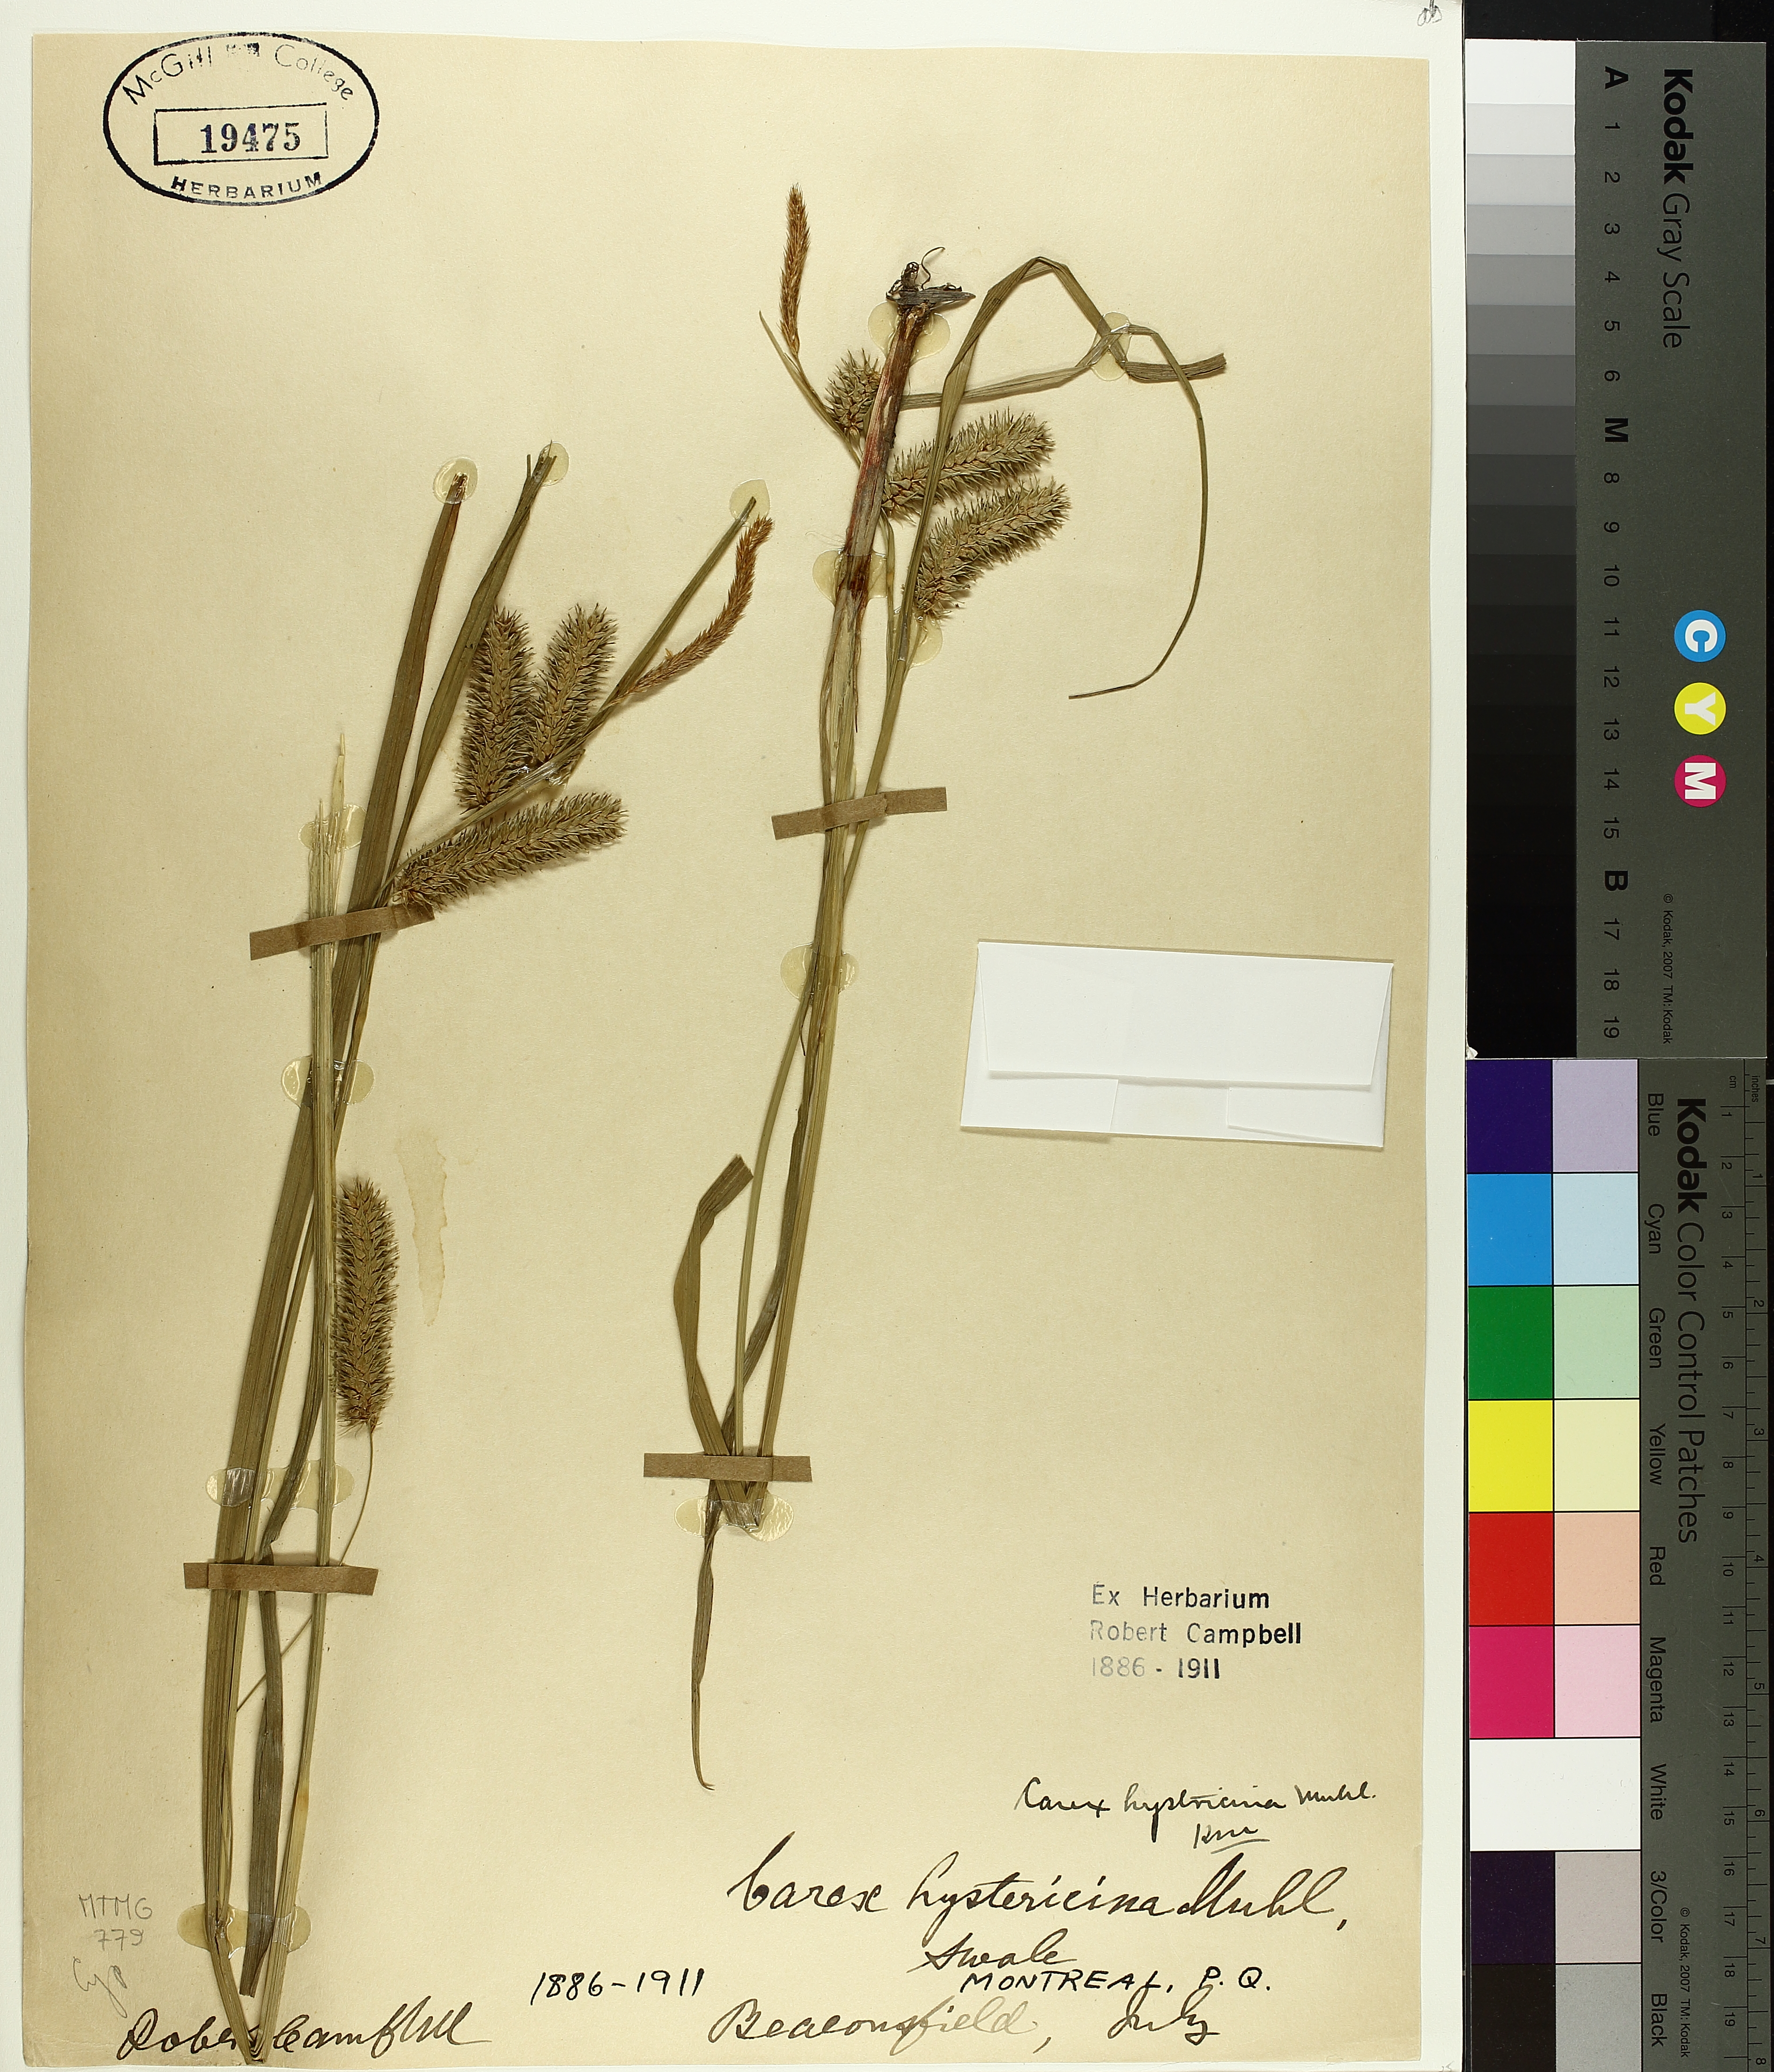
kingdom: Plantae
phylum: Tracheophyta
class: Liliopsida
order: Poales
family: Cyperaceae
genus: Carex
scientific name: Carex hystericina
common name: Bottlebrush sedge
